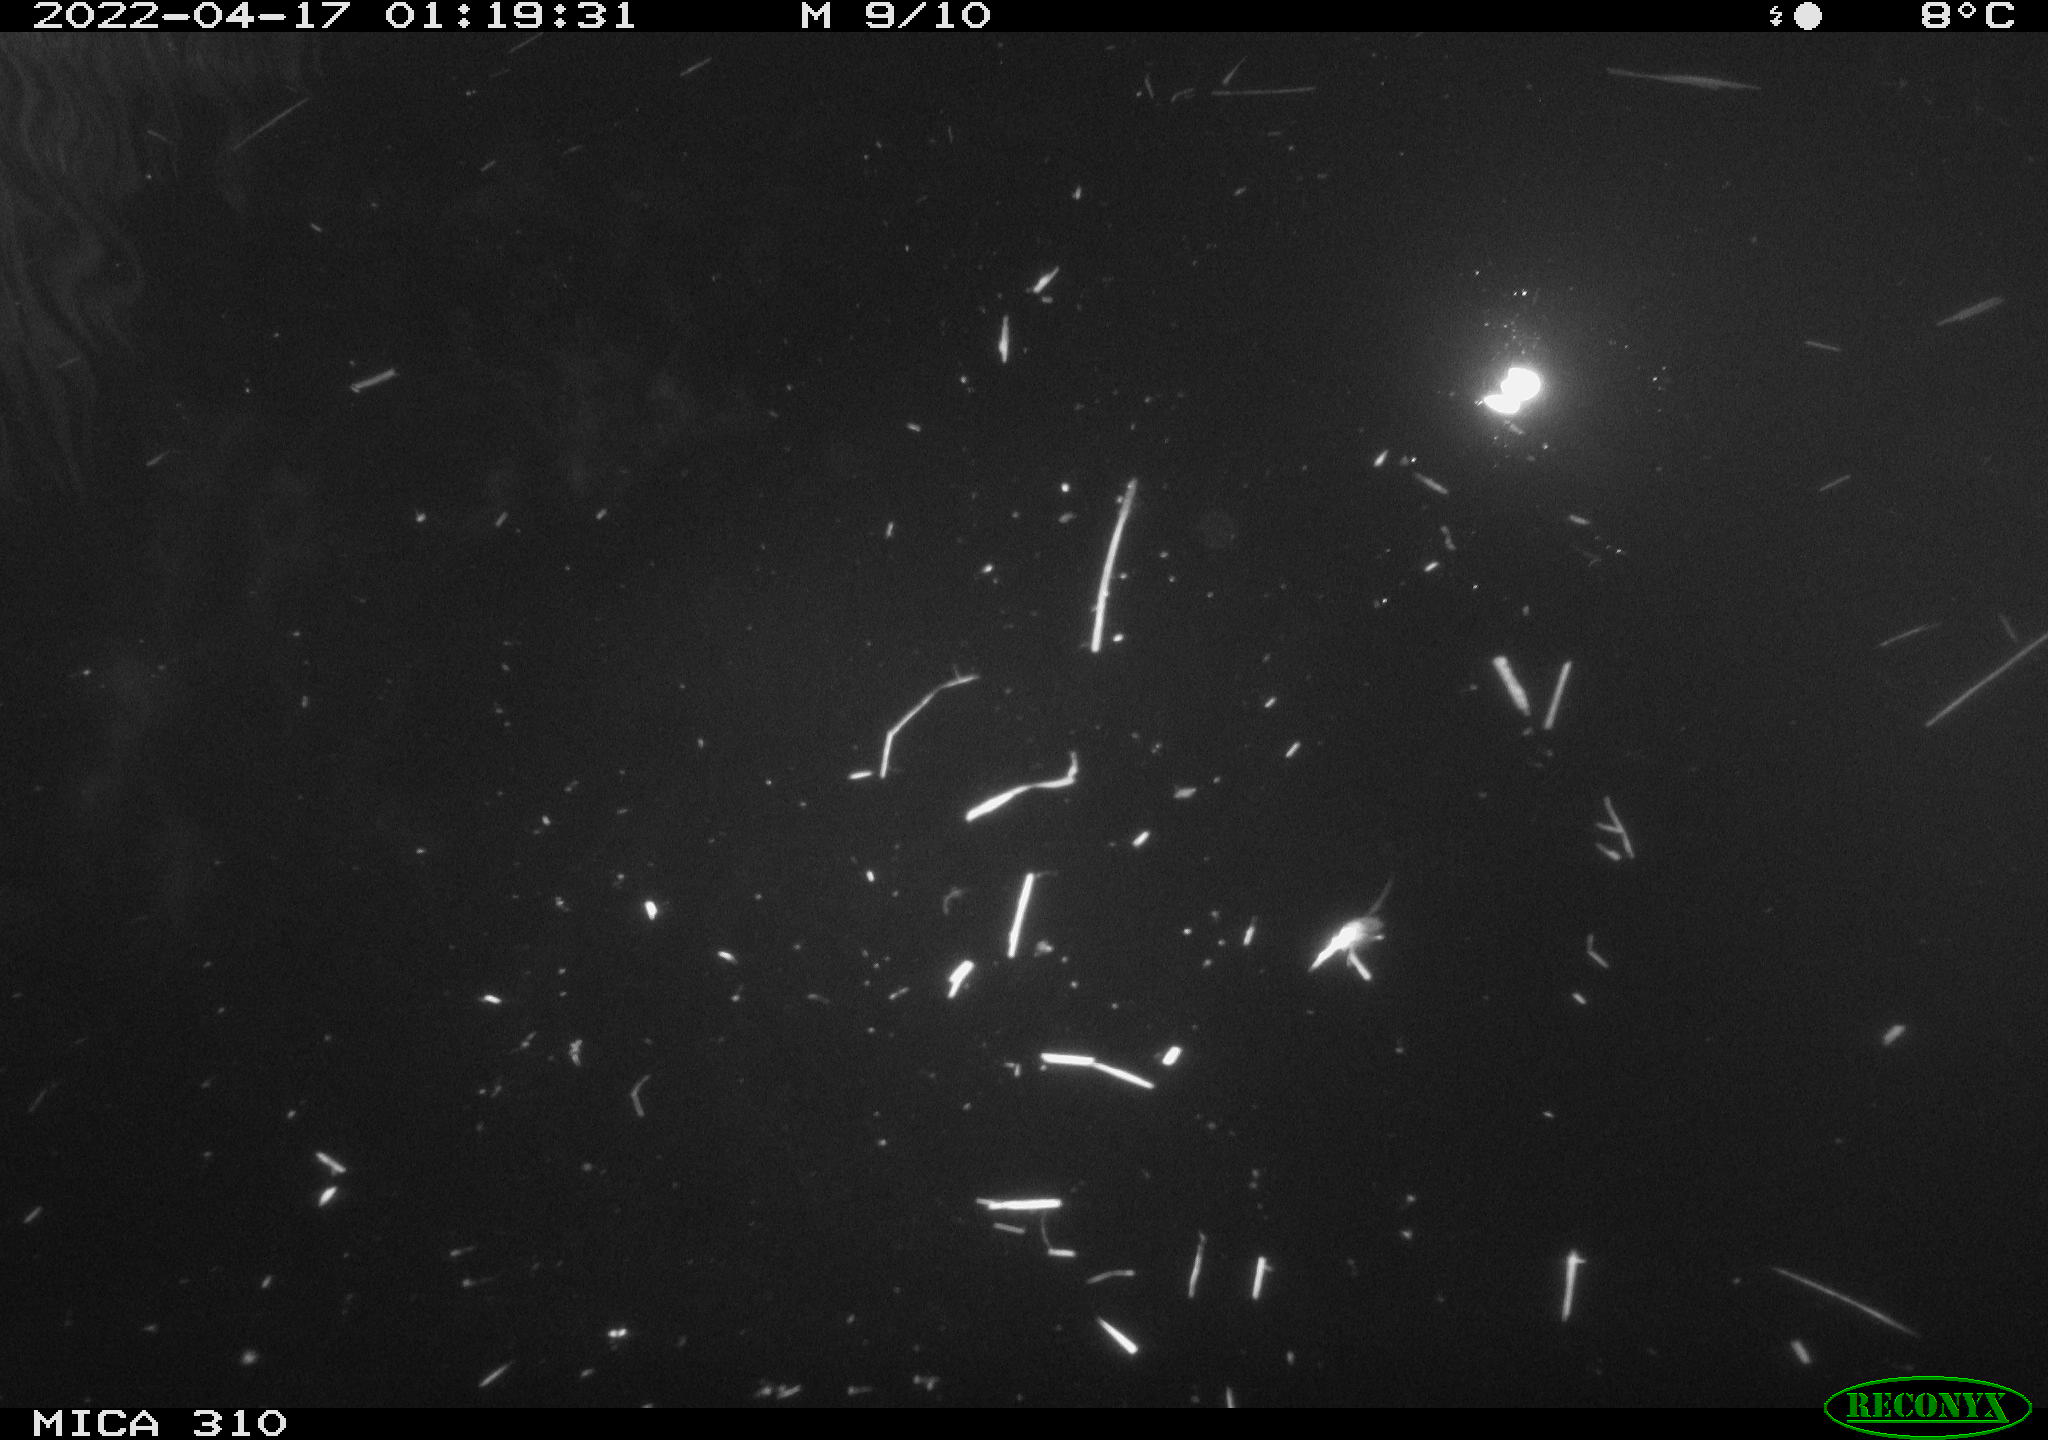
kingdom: Animalia
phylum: Chordata
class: Aves
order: Anseriformes
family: Anatidae
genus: Anas
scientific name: Anas platyrhynchos
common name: Mallard
